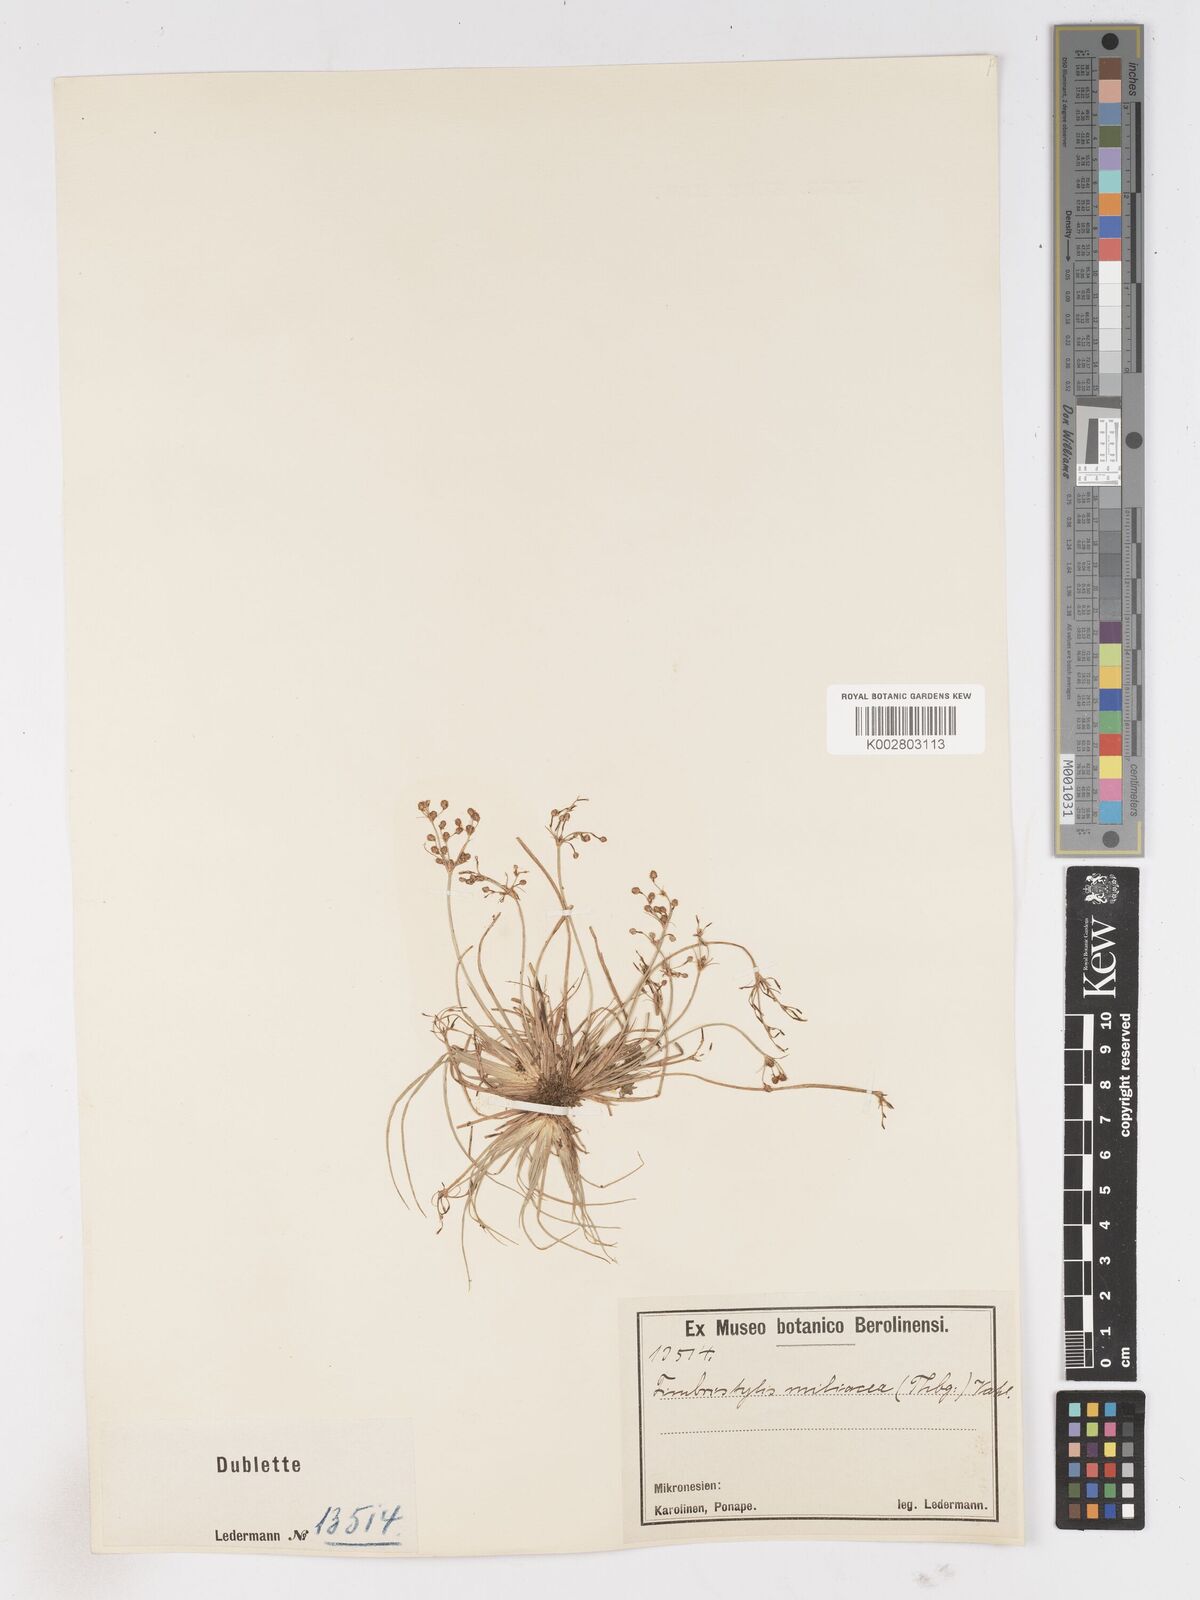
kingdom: Plantae
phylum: Tracheophyta
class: Liliopsida
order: Poales
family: Cyperaceae
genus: Fimbristylis
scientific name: Fimbristylis littoralis
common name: Fimbry
